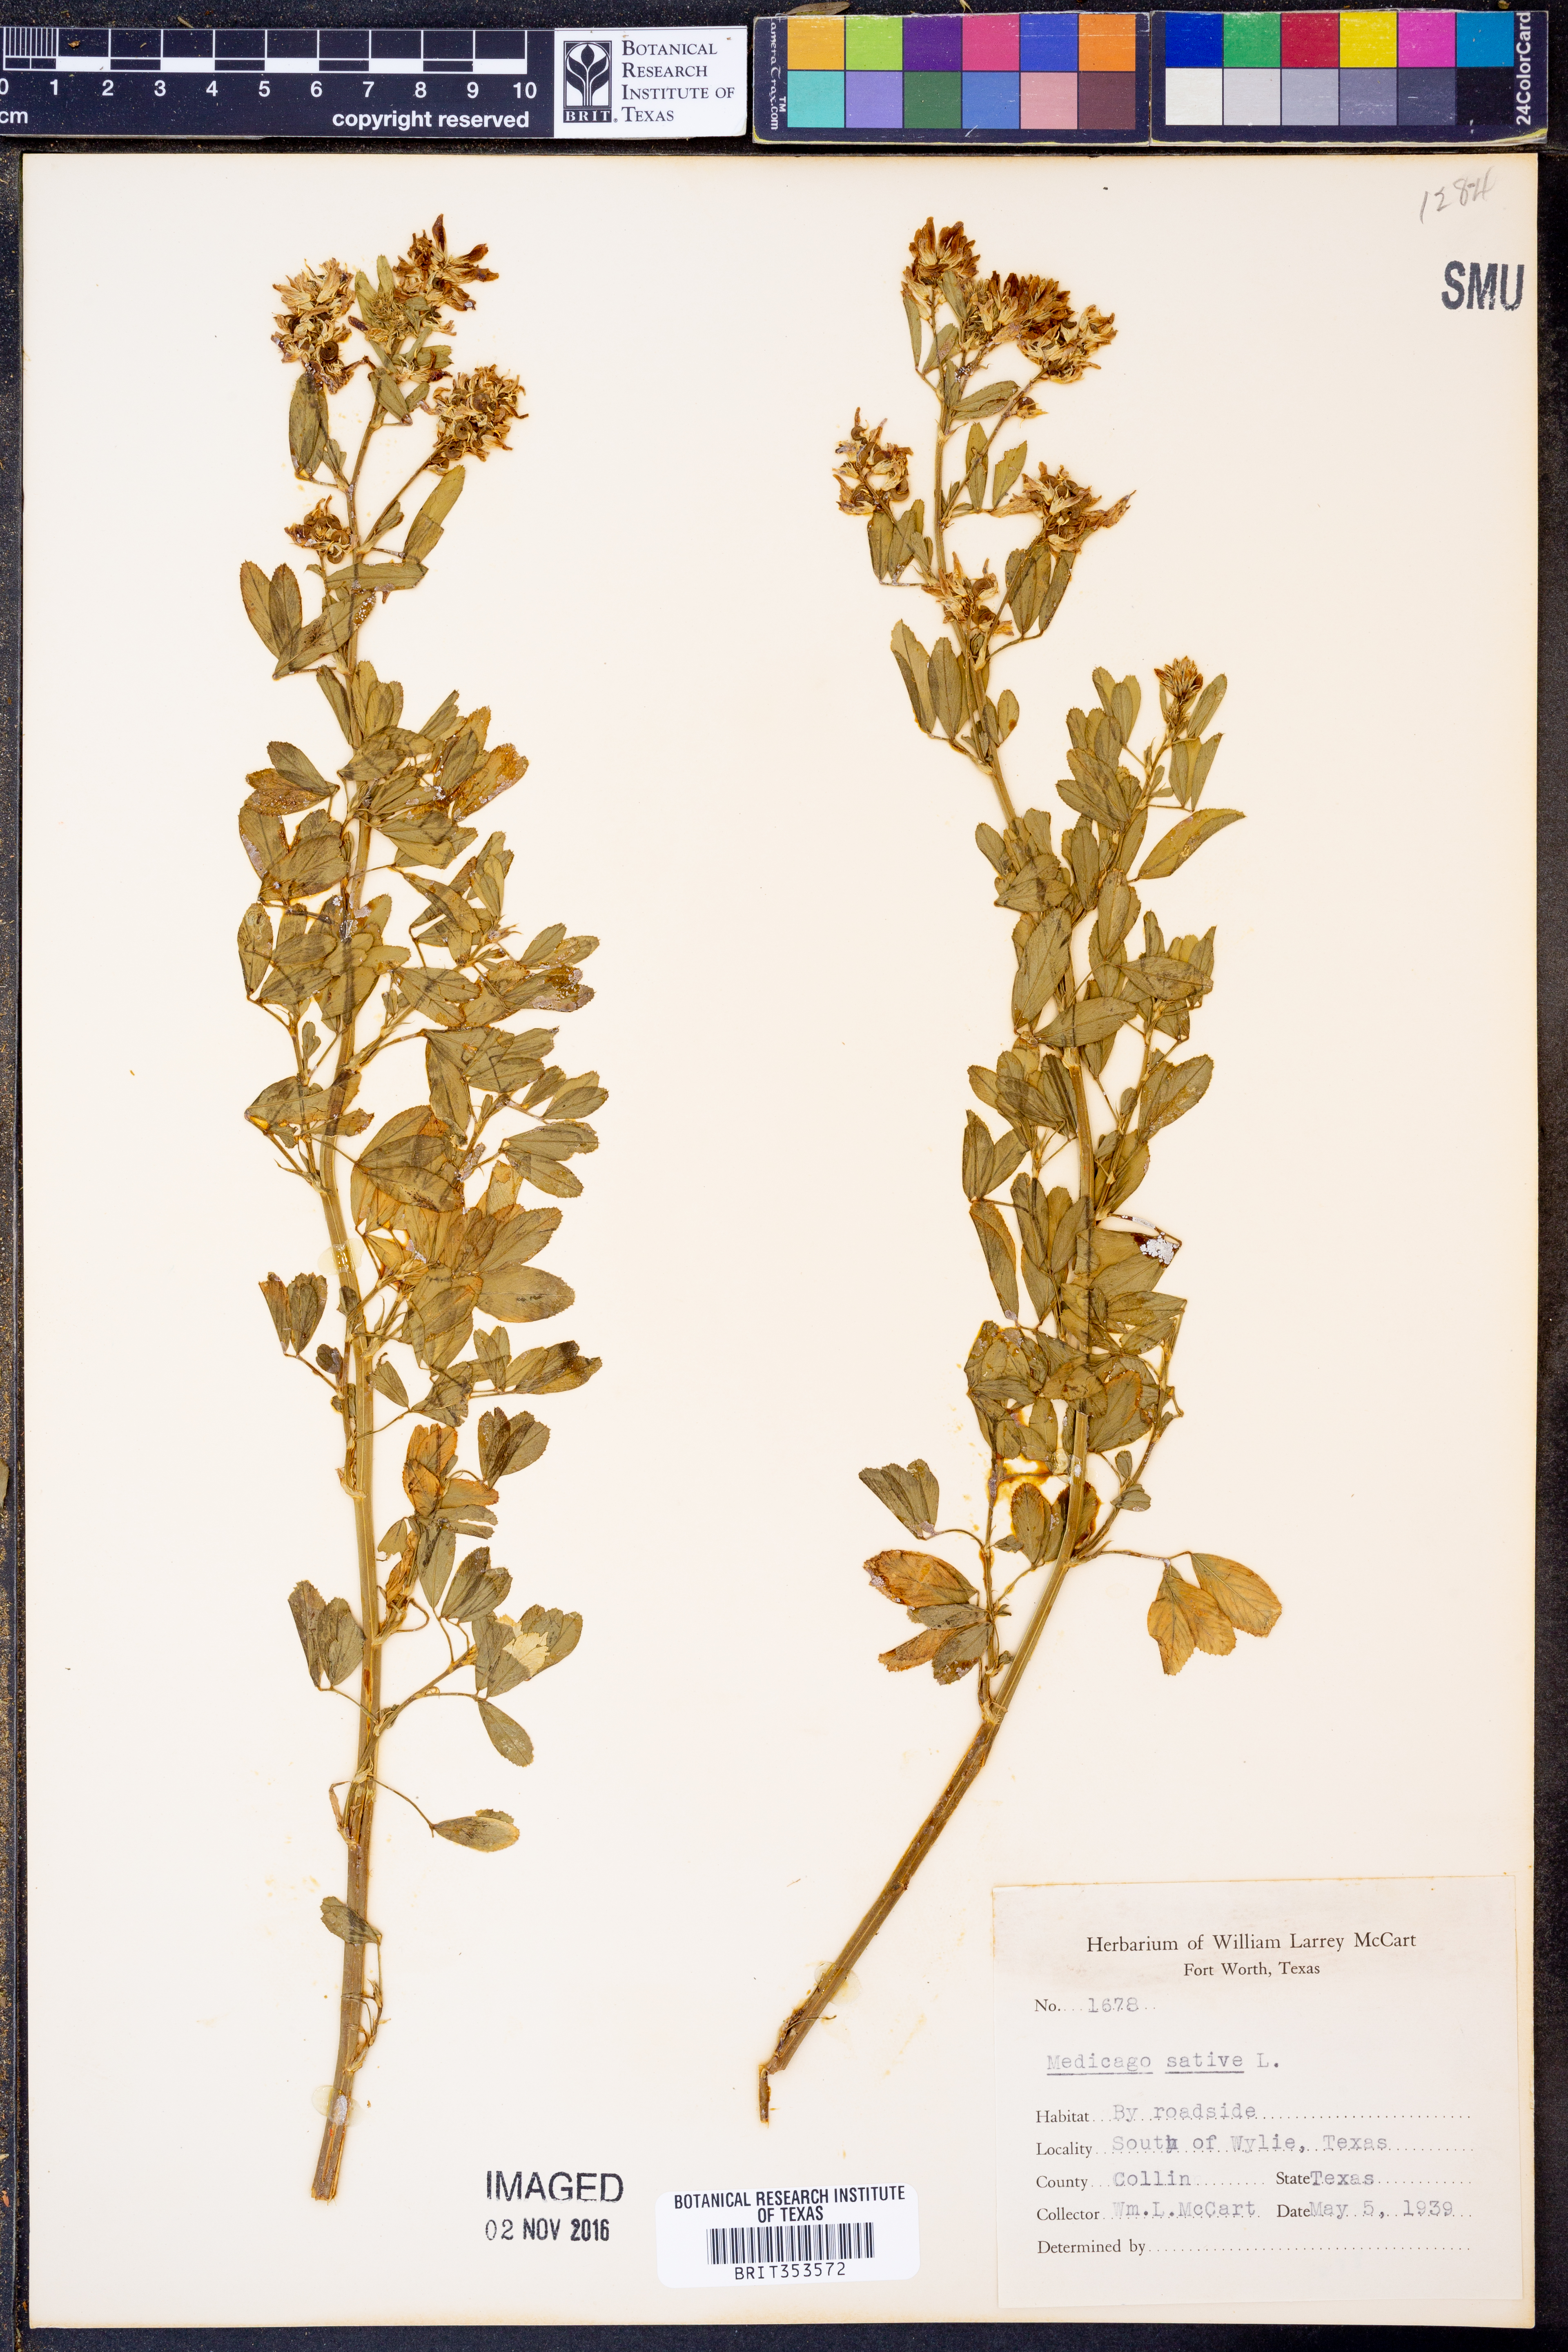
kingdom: Plantae
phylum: Tracheophyta
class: Magnoliopsida
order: Fabales
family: Fabaceae
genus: Medicago
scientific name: Medicago sativa
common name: Alfalfa
